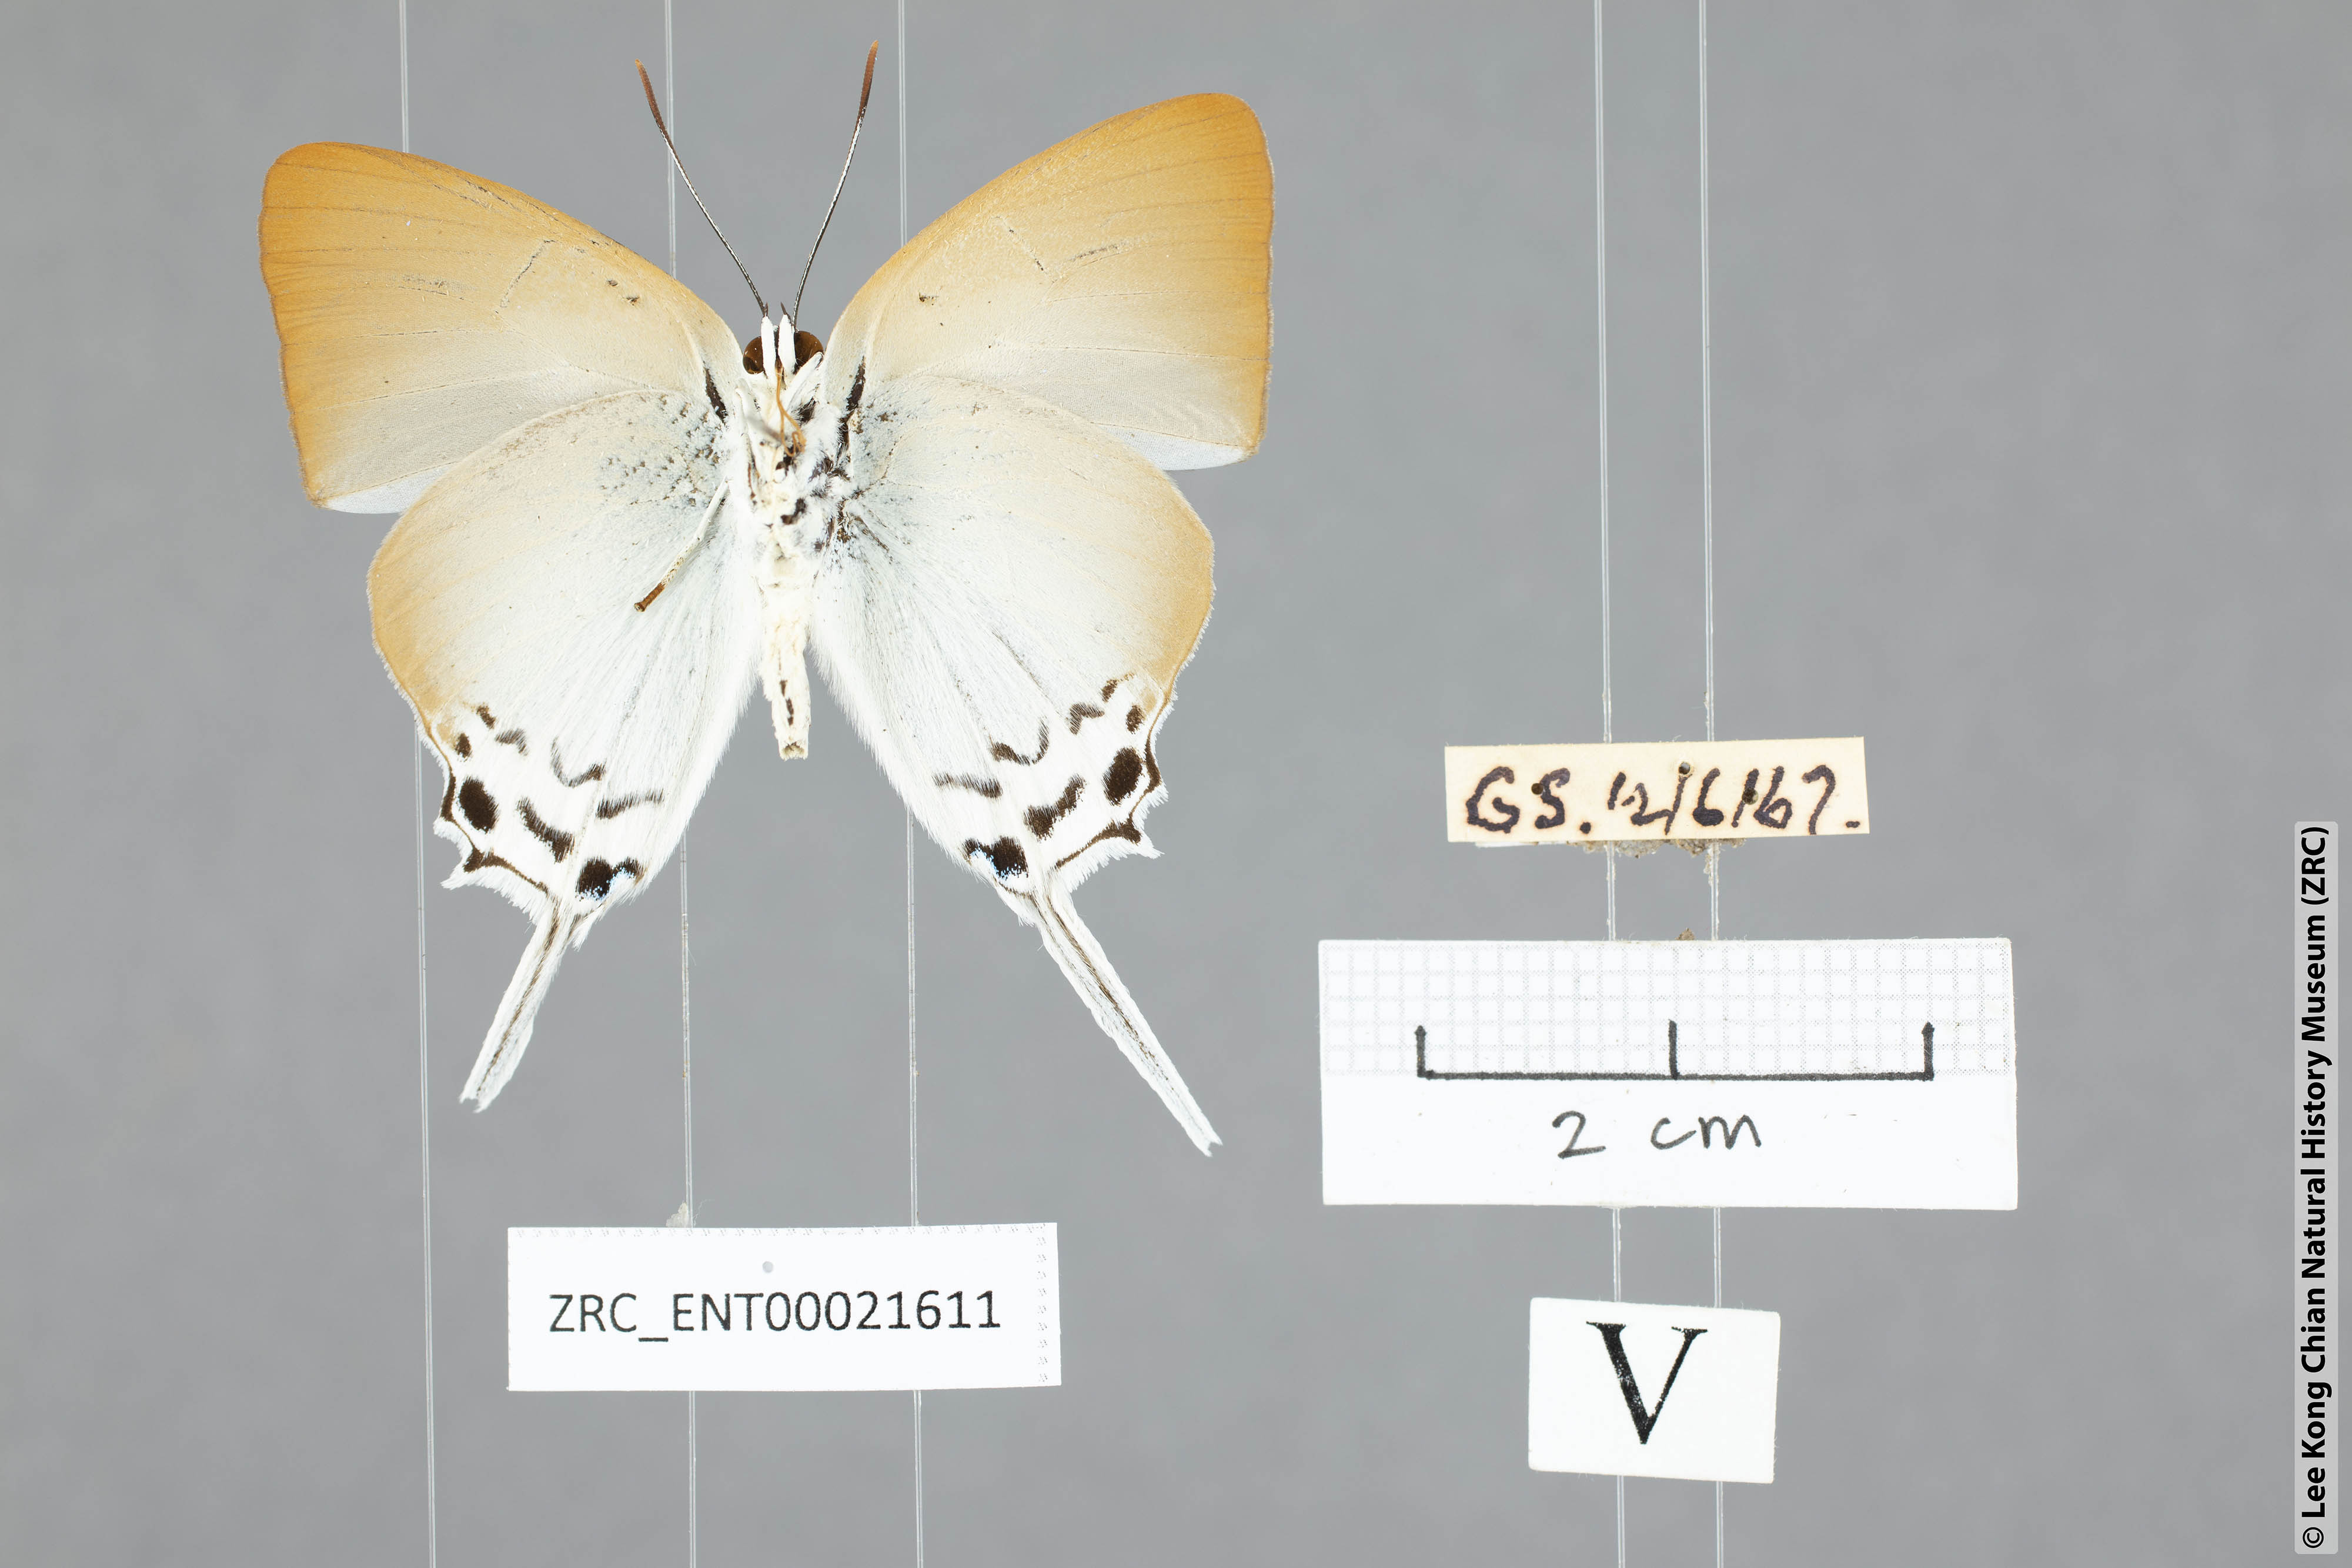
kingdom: Animalia
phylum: Arthropoda
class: Insecta
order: Lepidoptera
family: Lycaenidae
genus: Jacoona
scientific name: Jacoona anasuja
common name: Great imperial
